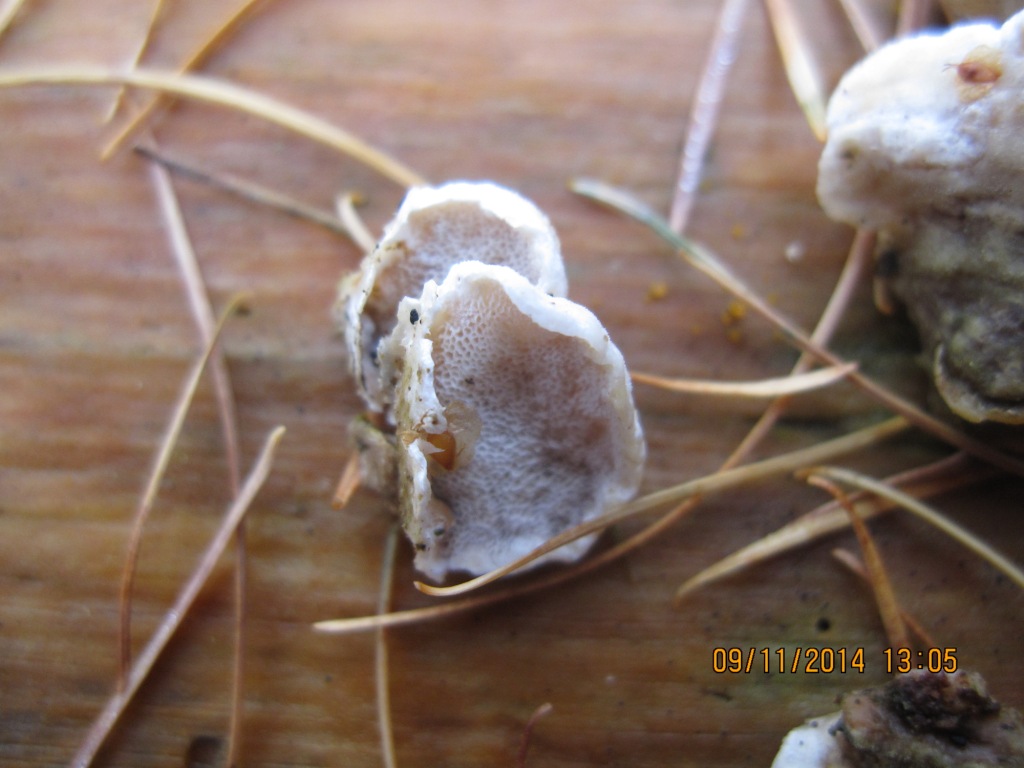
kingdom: Fungi
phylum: Basidiomycota
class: Agaricomycetes
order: Polyporales
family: Incrustoporiaceae
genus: Skeletocutis
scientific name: Skeletocutis carneogrisea
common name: rødgrå krystalporesvamp
